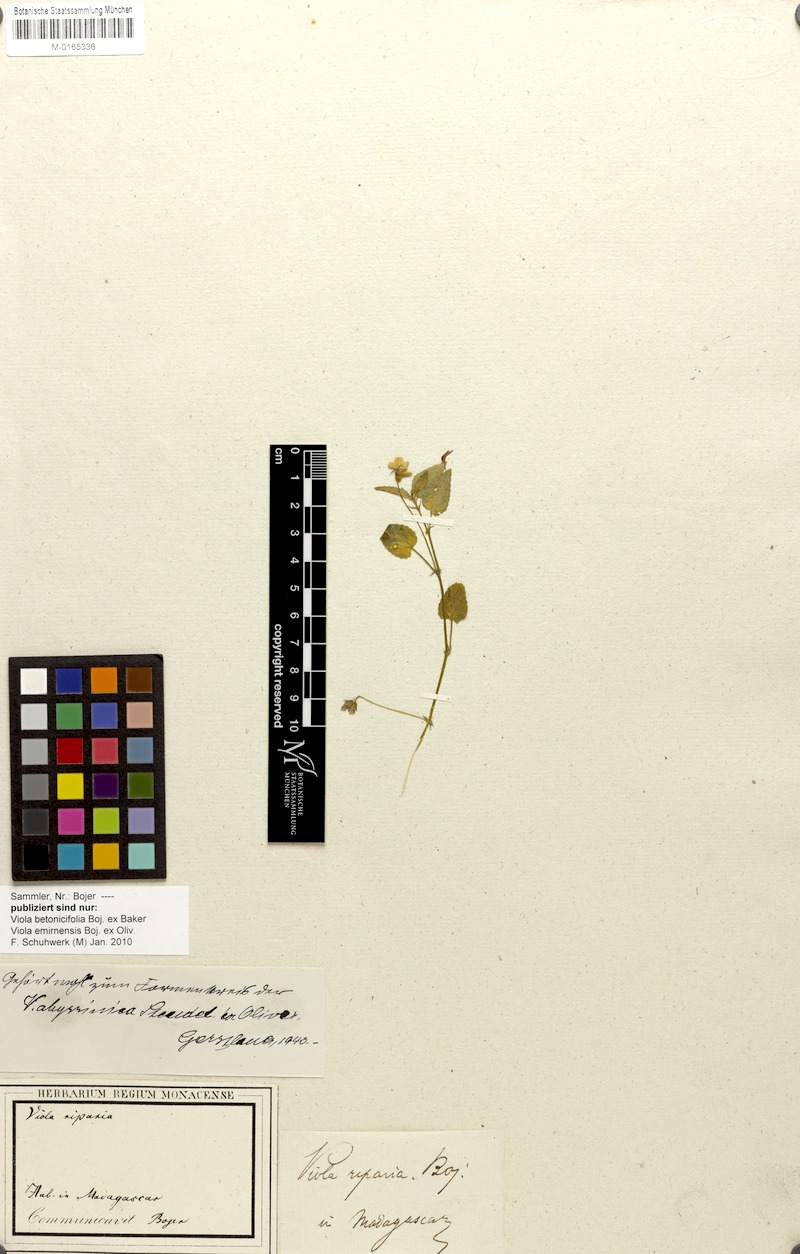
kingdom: Plantae
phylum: Tracheophyta
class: Magnoliopsida
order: Malpighiales
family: Violaceae
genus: Viola
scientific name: Viola abyssinica
